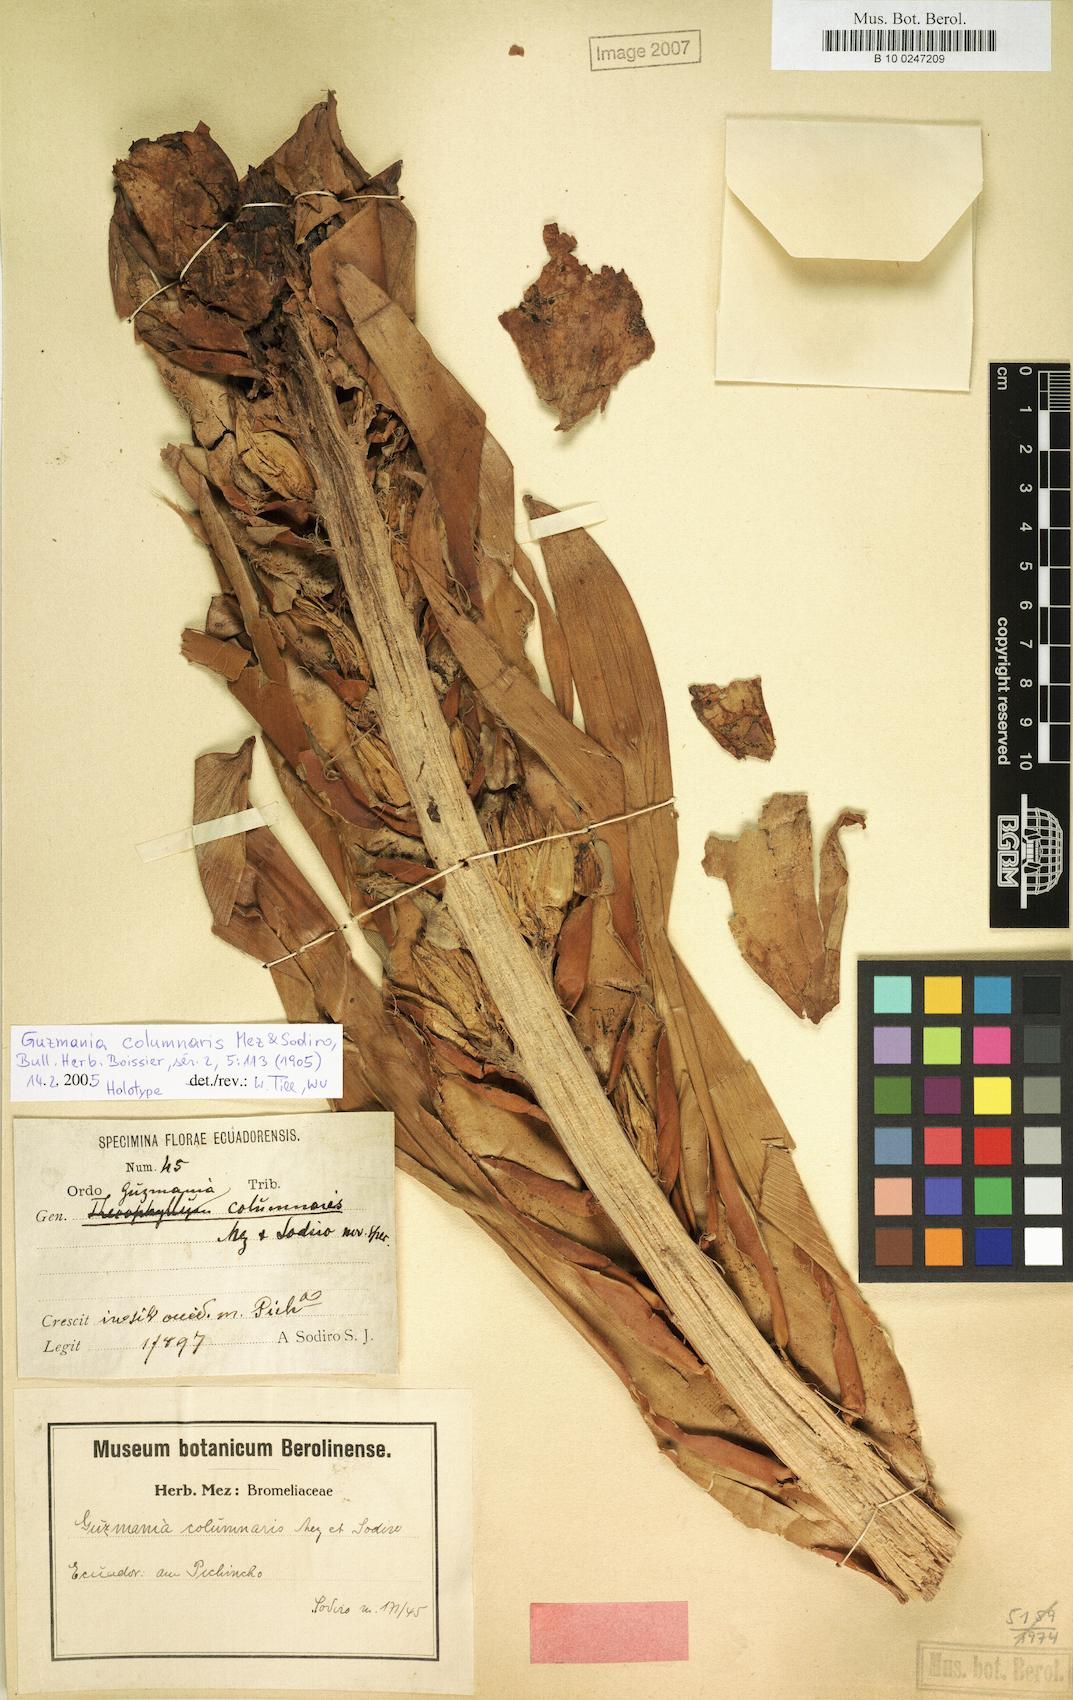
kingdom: Plantae
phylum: Tracheophyta
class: Liliopsida
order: Poales
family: Bromeliaceae
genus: Guzmania
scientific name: Guzmania gloriosa
